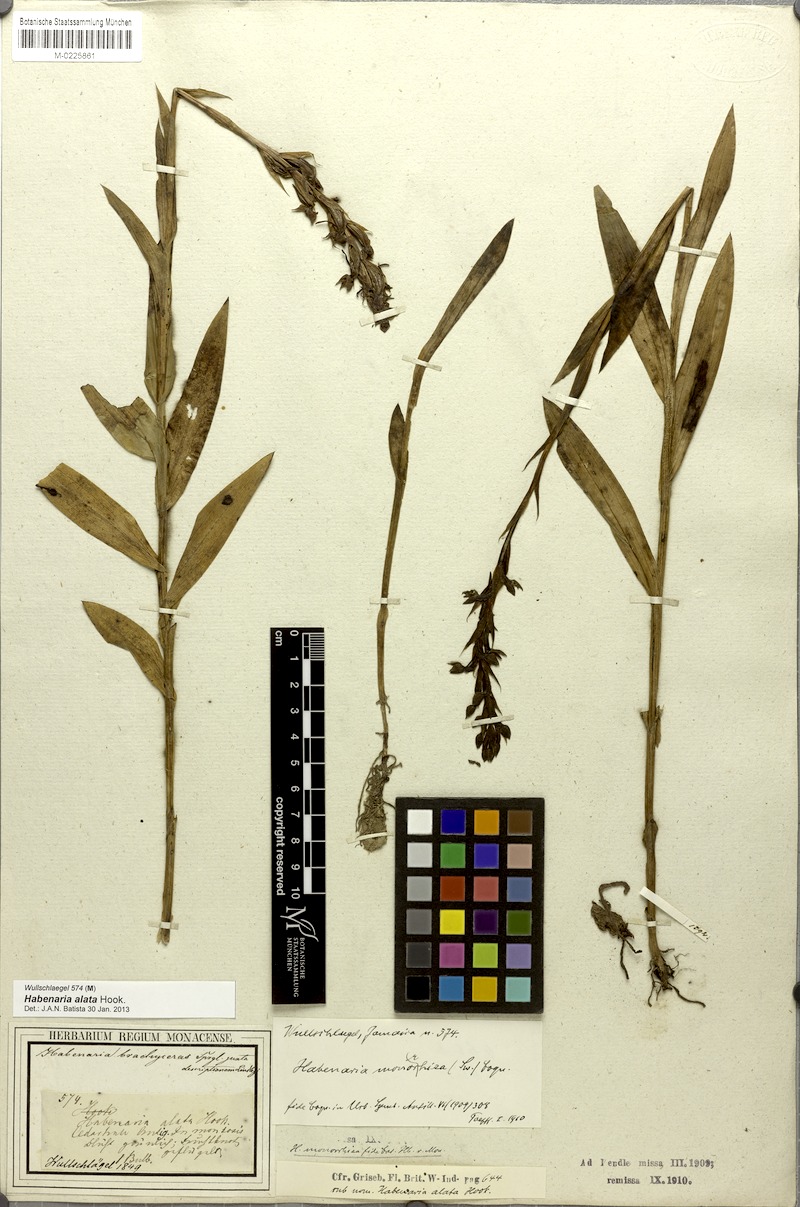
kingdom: Plantae
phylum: Tracheophyta
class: Liliopsida
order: Asparagales
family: Orchidaceae
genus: Habenaria
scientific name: Habenaria alata
